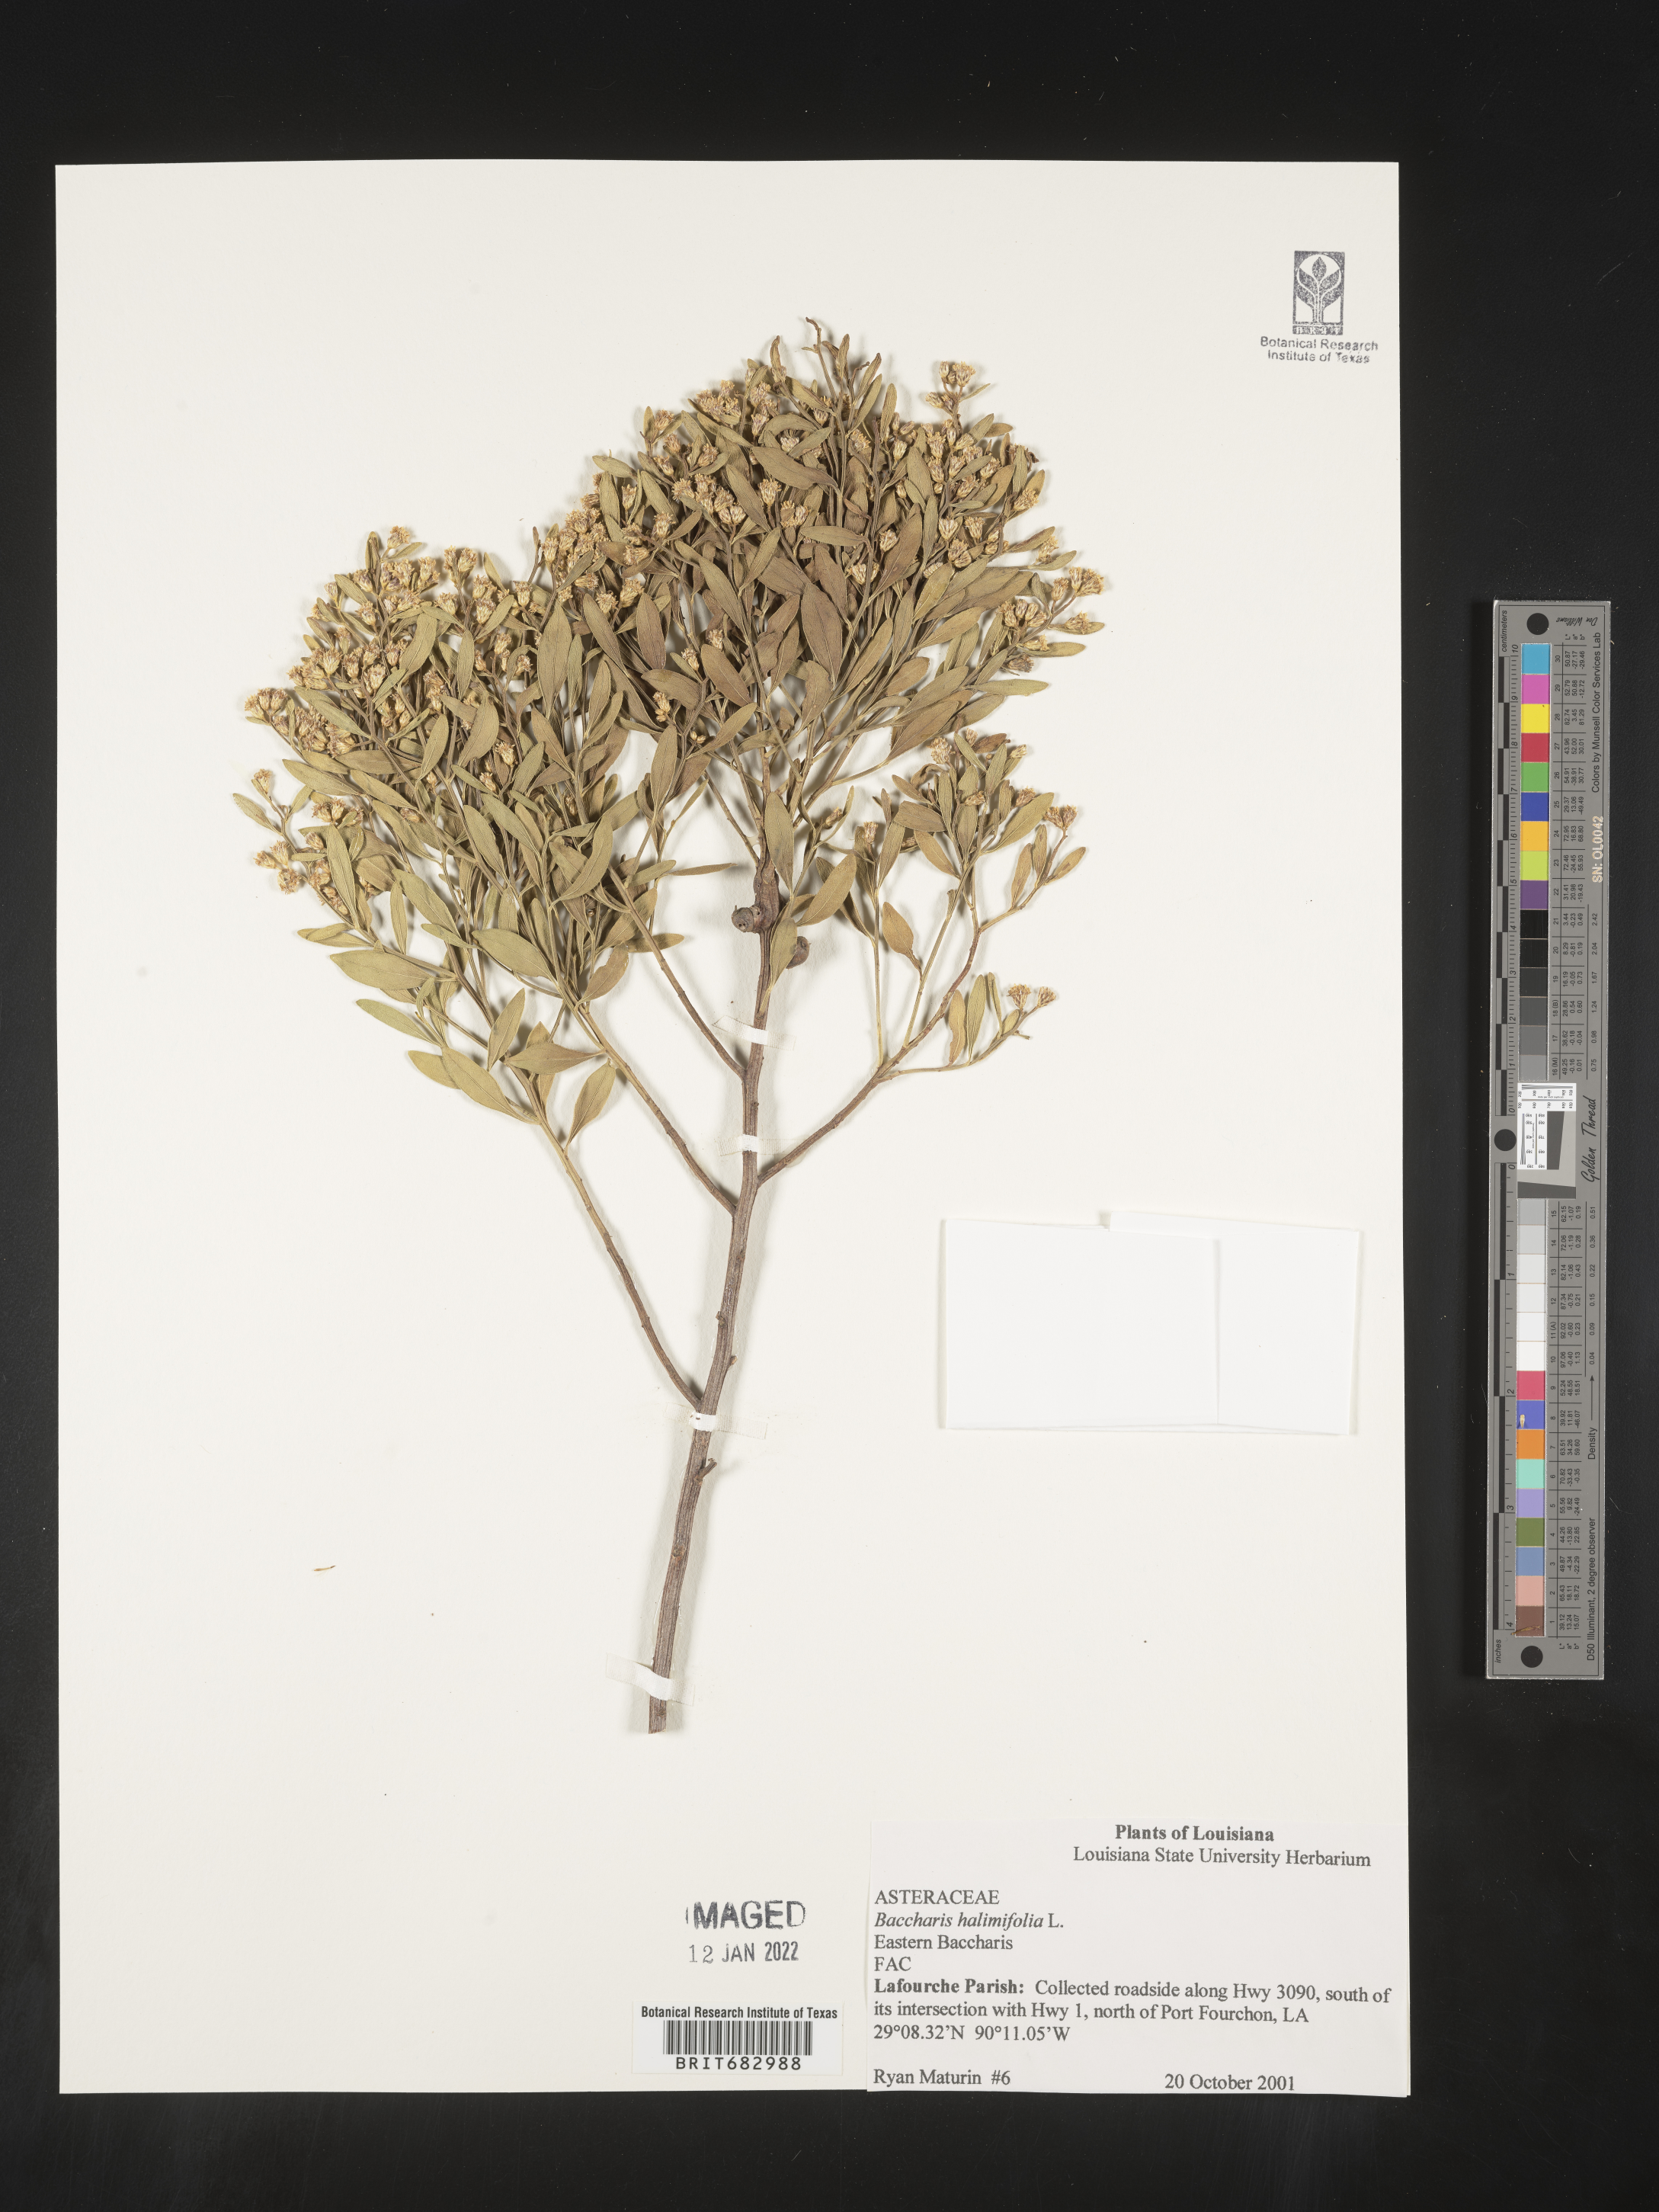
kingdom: Plantae
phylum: Tracheophyta
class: Magnoliopsida
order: Asterales
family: Asteraceae
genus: Nidorella
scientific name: Nidorella ivifolia
